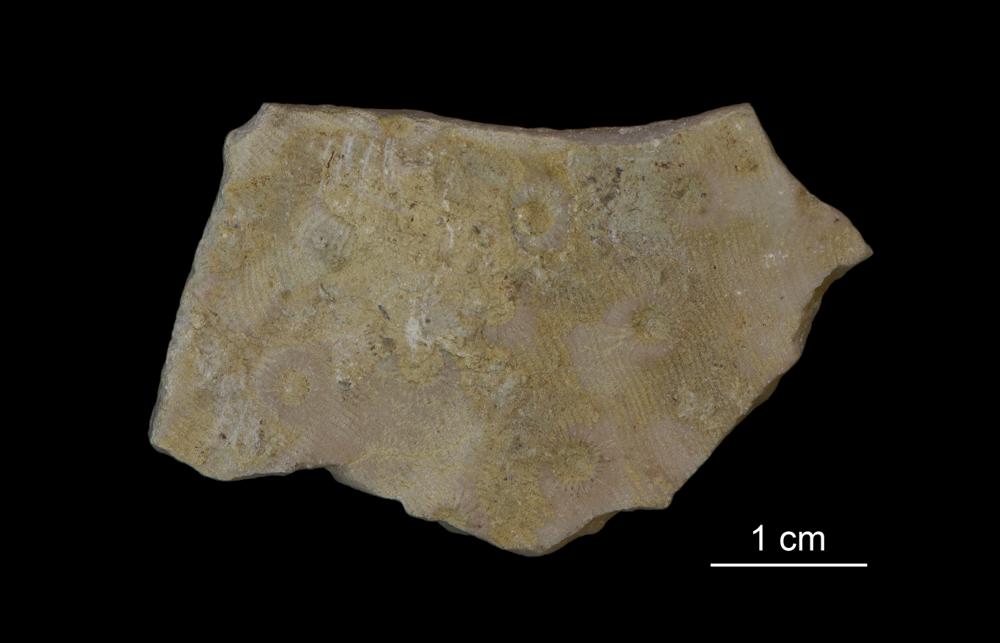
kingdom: Plantae
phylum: Tracheophyta
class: Magnoliopsida
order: Myrtales
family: Myrtaceae
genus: Darwinia
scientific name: Darwinia speciosa
